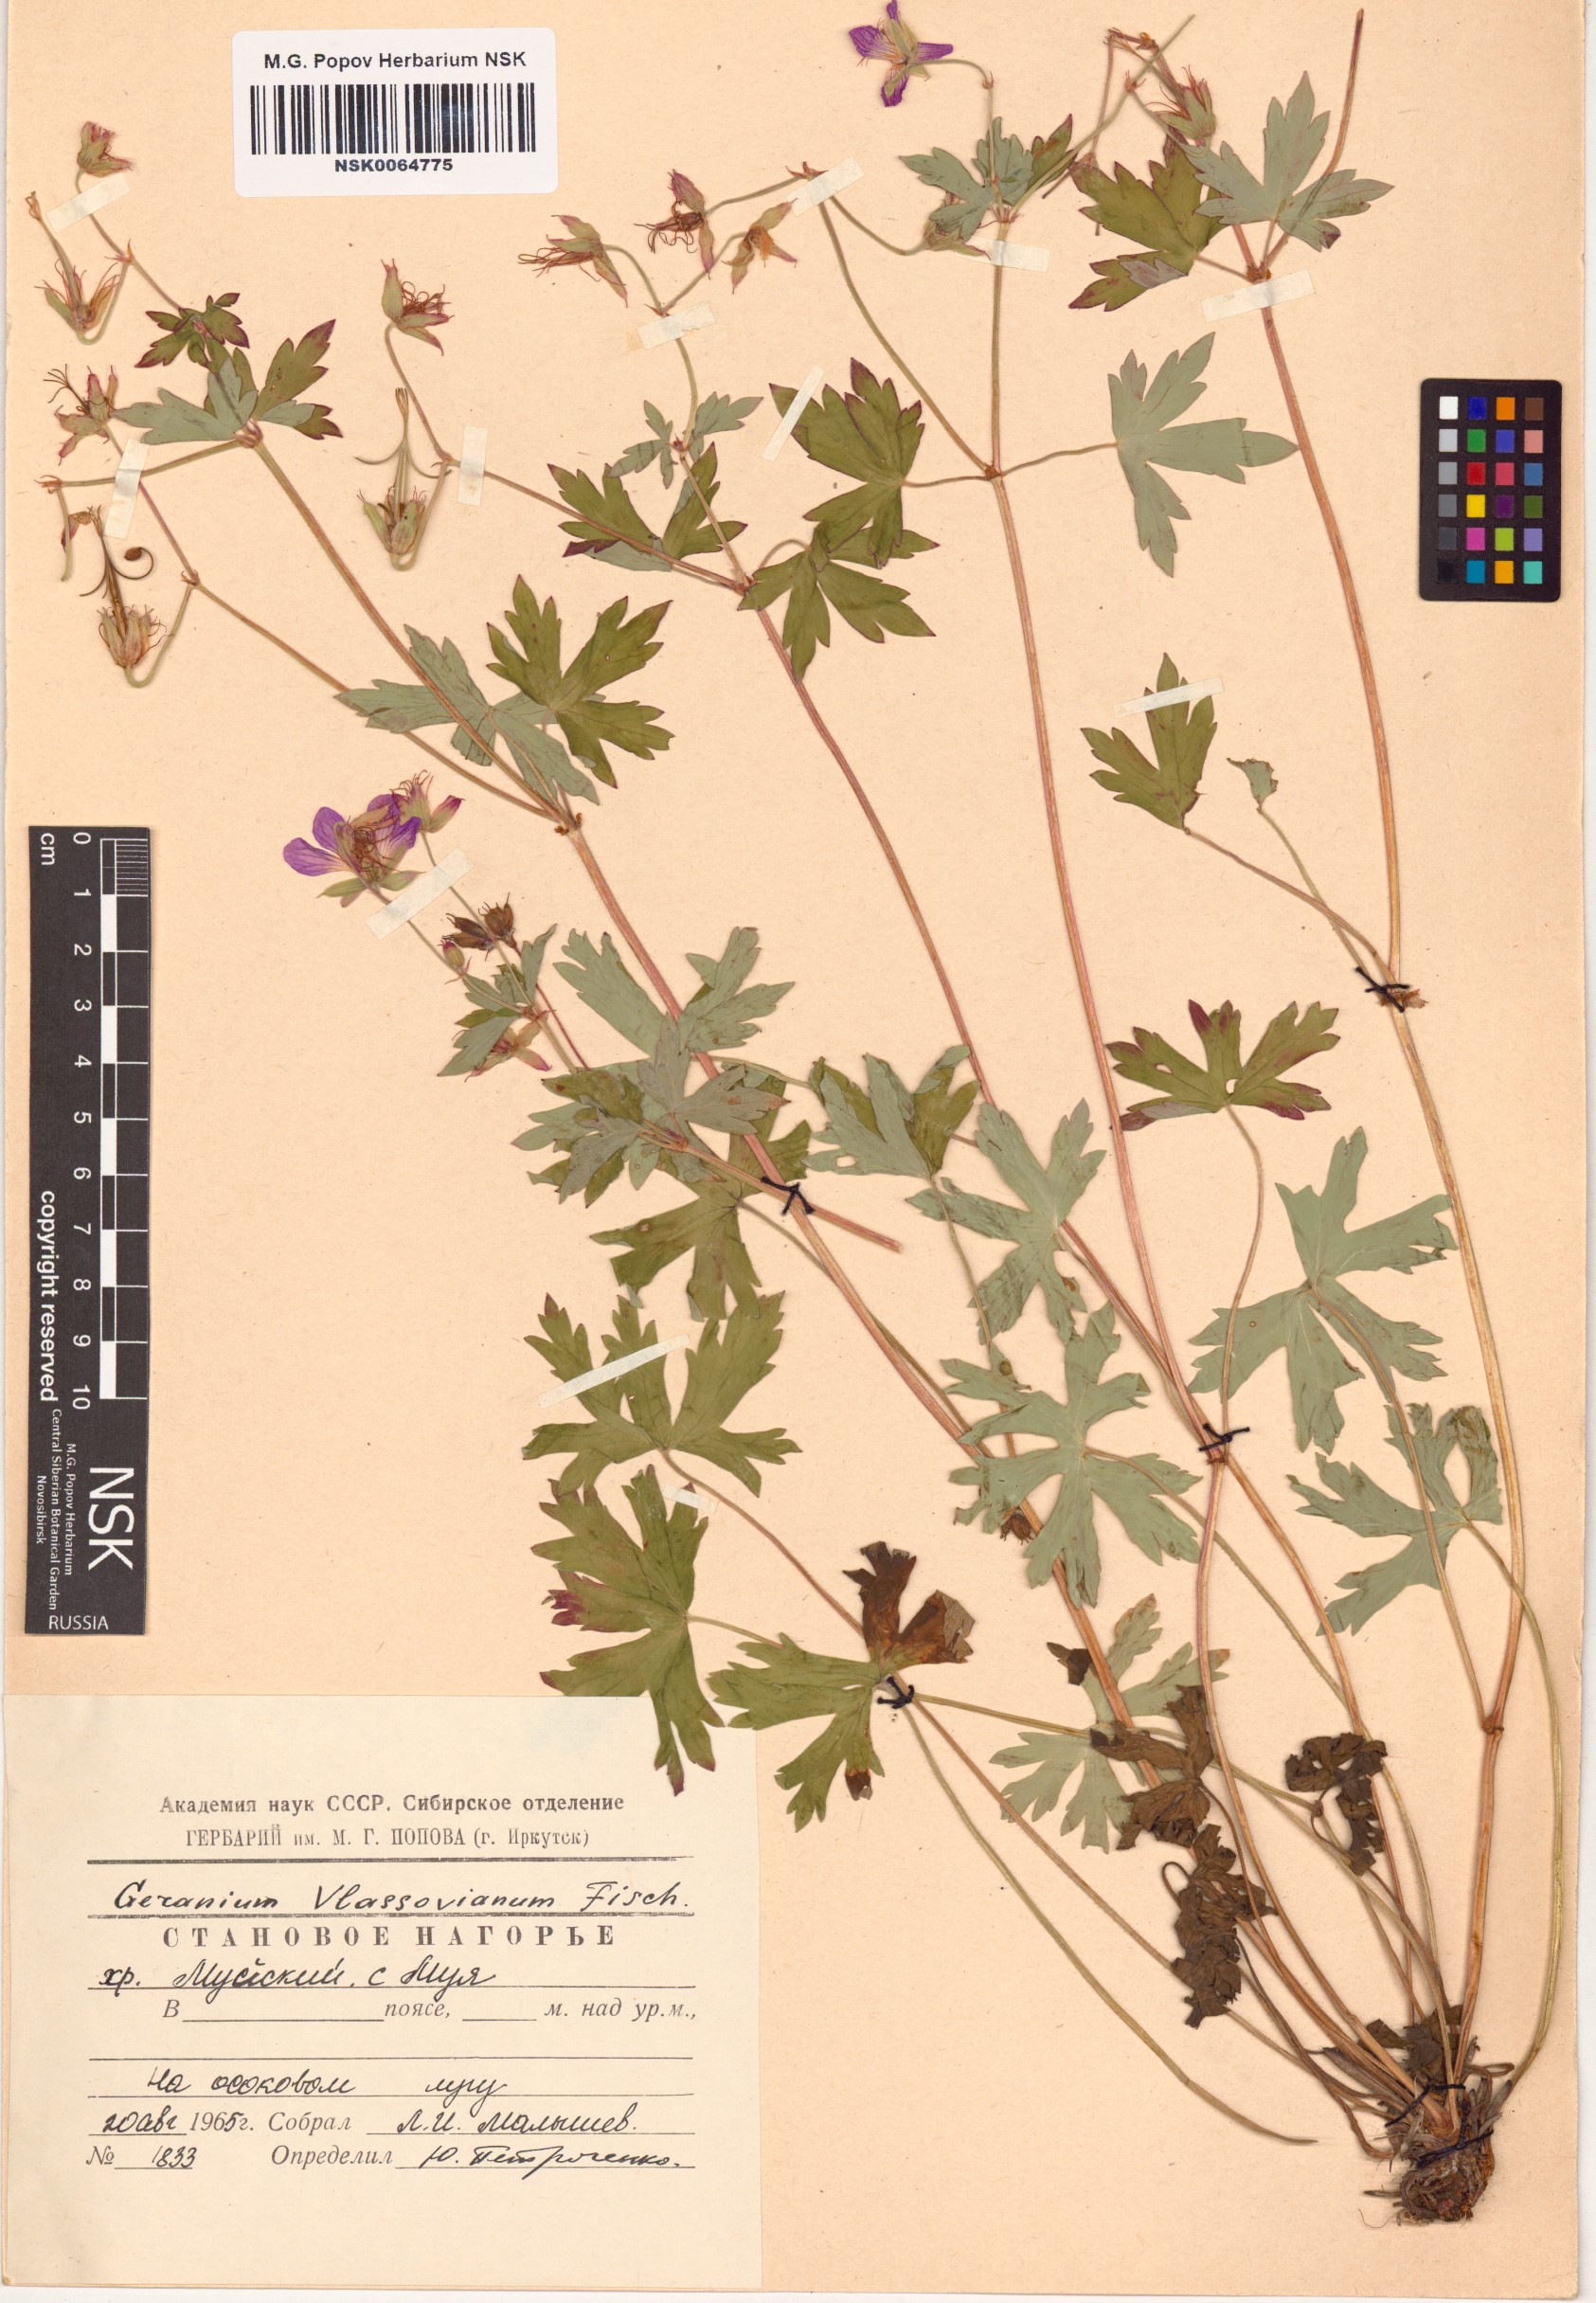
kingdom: Plantae
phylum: Tracheophyta
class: Magnoliopsida
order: Geraniales
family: Geraniaceae
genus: Geranium
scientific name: Geranium wlassovianum
